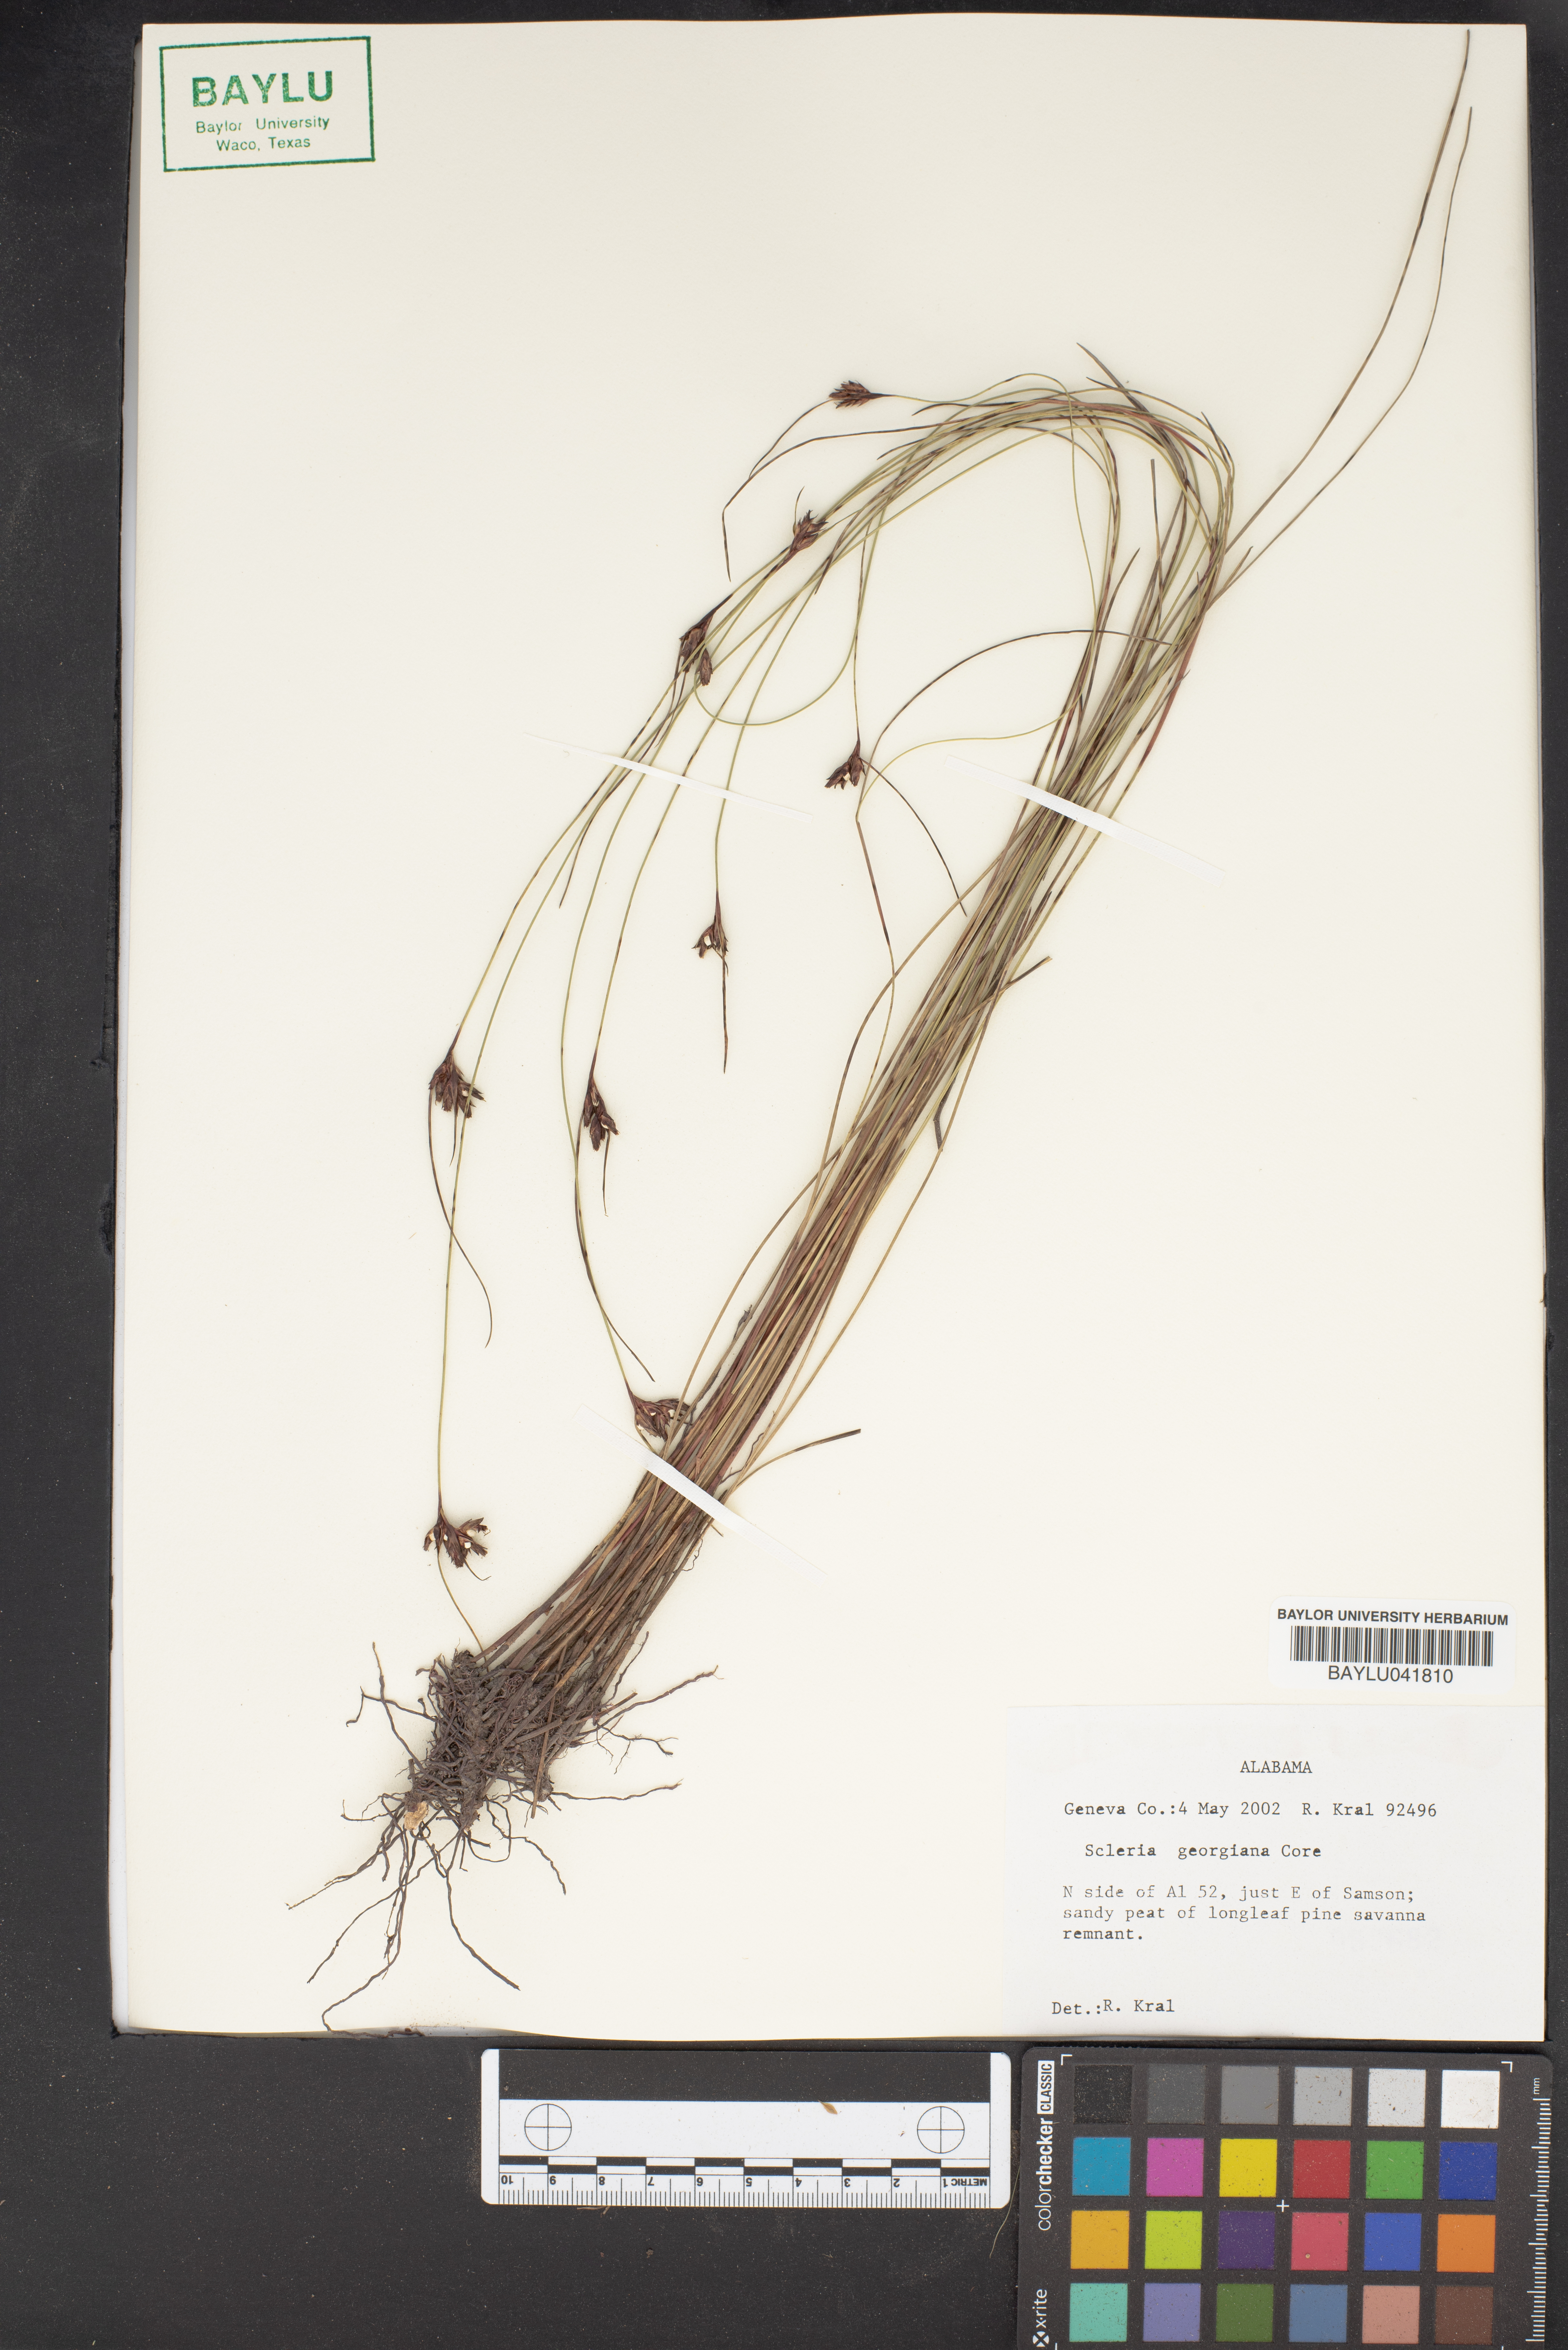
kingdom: Plantae
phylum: Tracheophyta
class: Liliopsida
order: Poales
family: Cyperaceae
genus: Scleria
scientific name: Scleria georgiana
